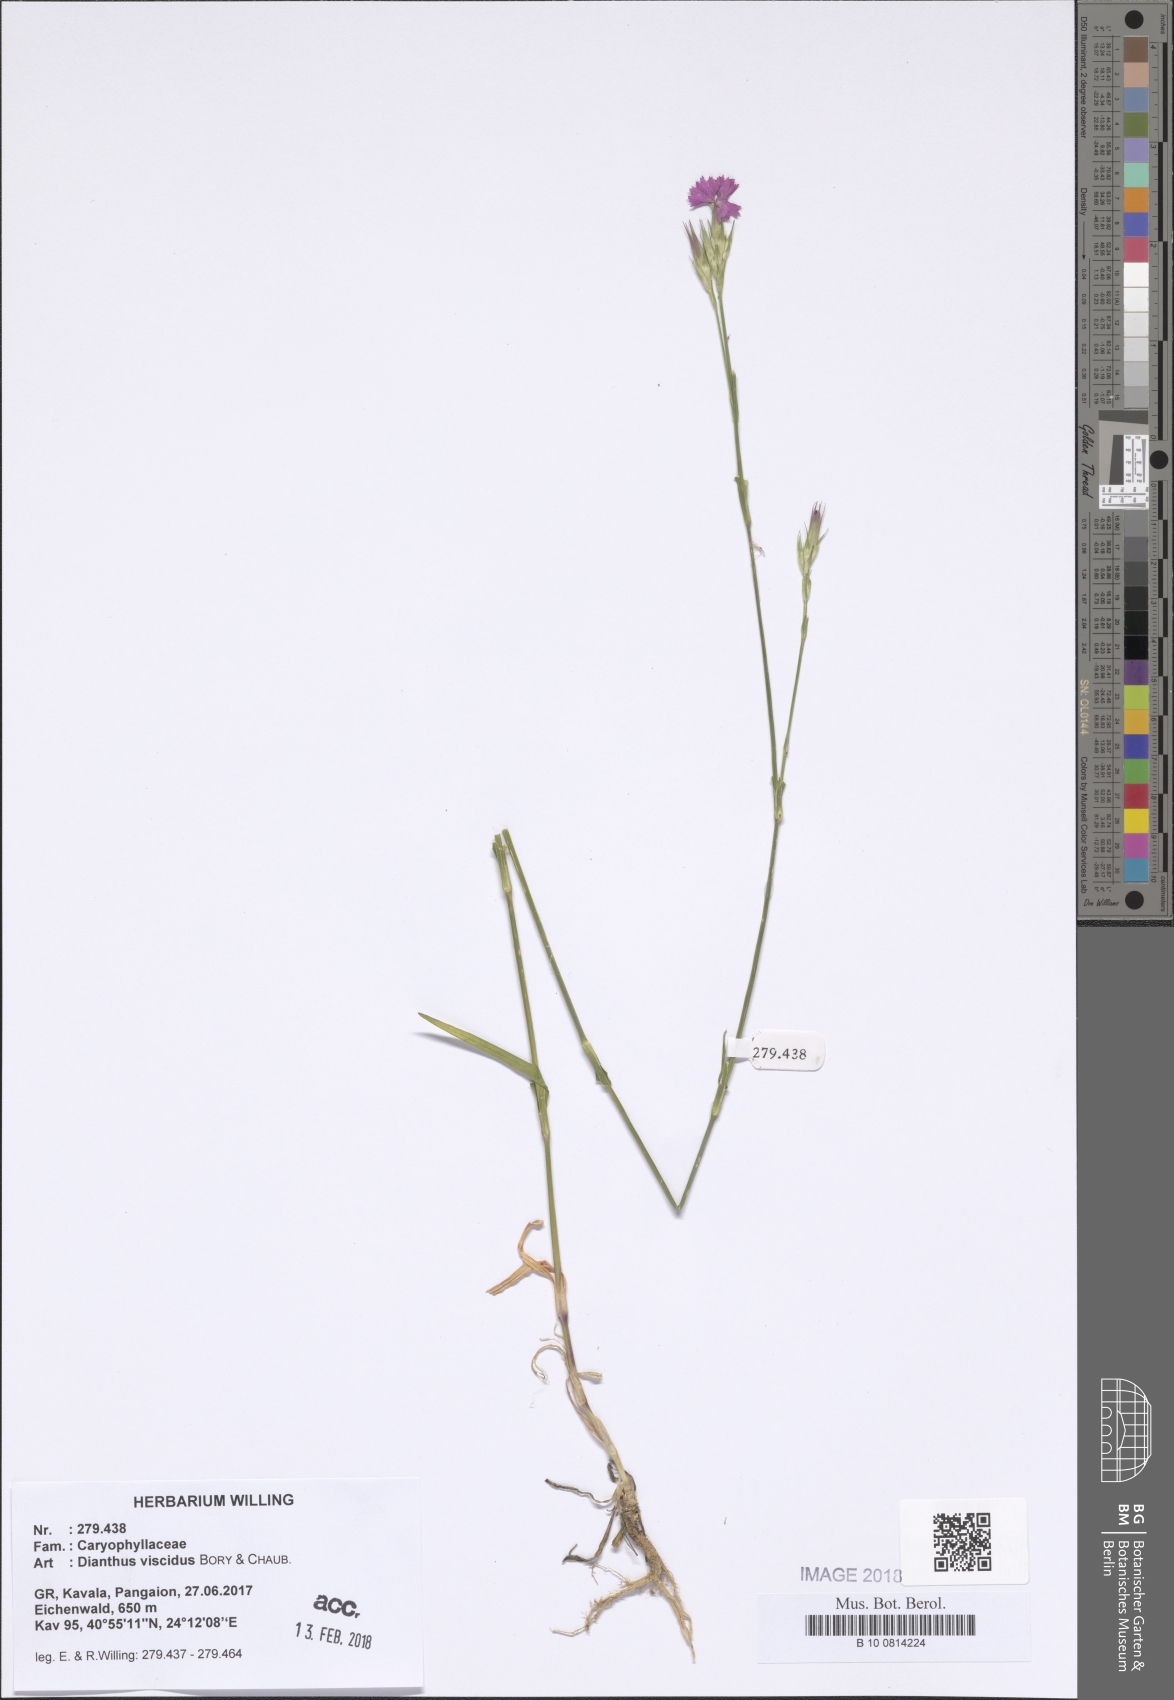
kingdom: Plantae
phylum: Tracheophyta
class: Magnoliopsida
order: Caryophyllales
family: Caryophyllaceae
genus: Dianthus
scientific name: Dianthus viscidus
